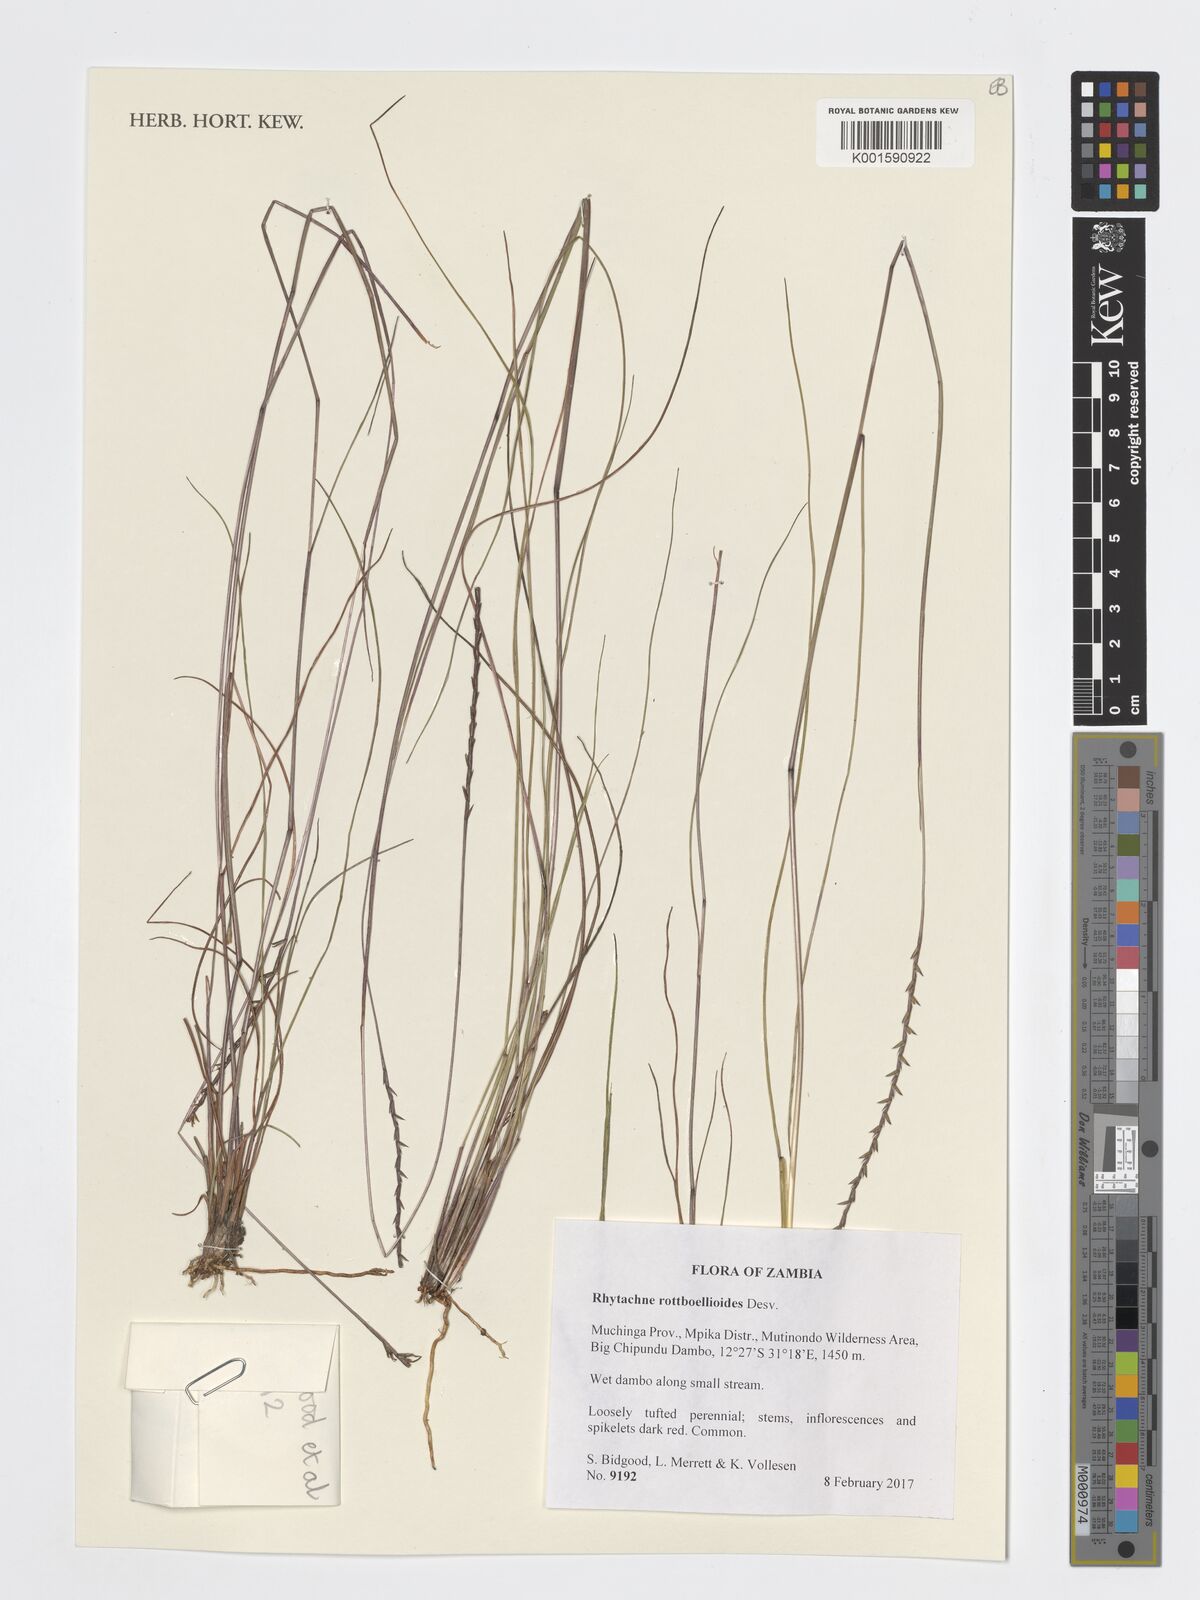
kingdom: Plantae
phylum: Tracheophyta
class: Liliopsida
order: Poales
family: Poaceae
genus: Rhytachne
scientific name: Rhytachne rottboellioides
